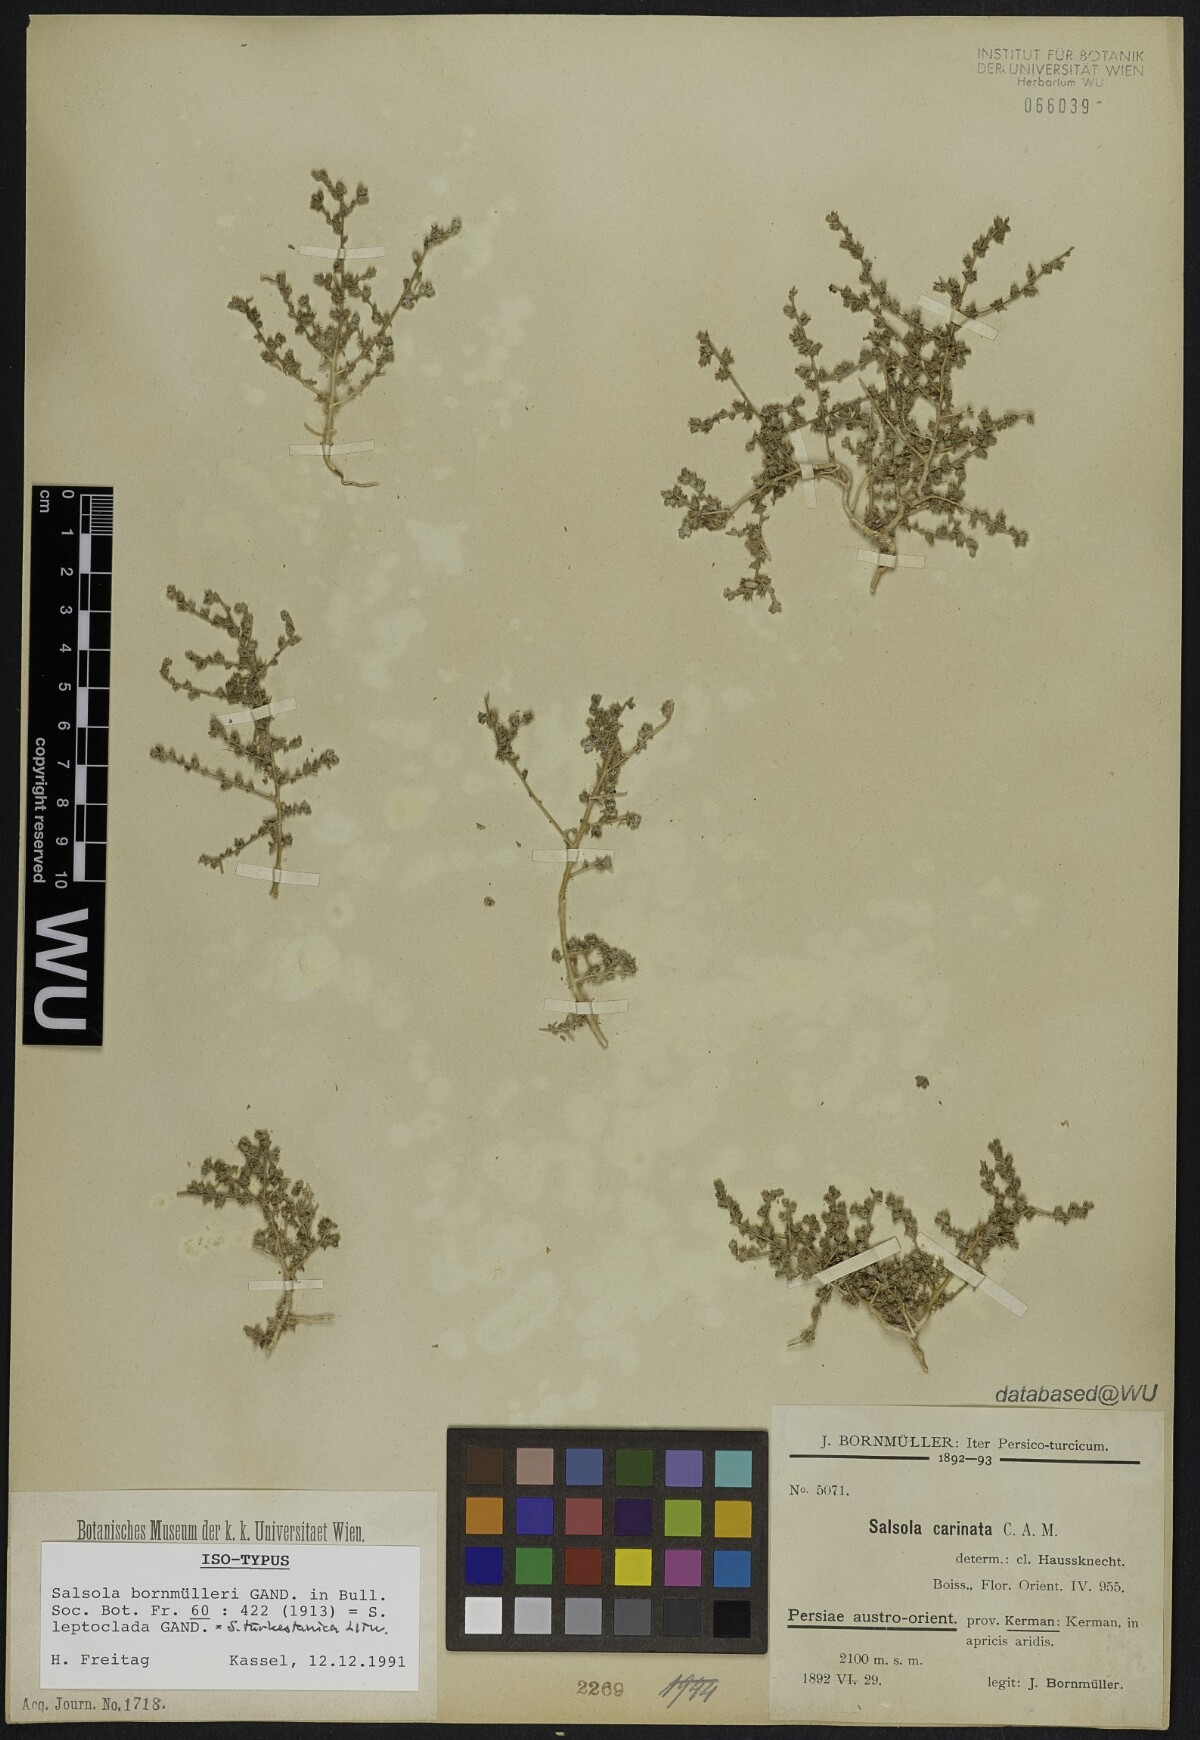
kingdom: Plantae
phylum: Tracheophyta
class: Magnoliopsida
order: Caryophyllales
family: Amaranthaceae
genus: Caroxylon
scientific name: Caroxylon turkestanicum
